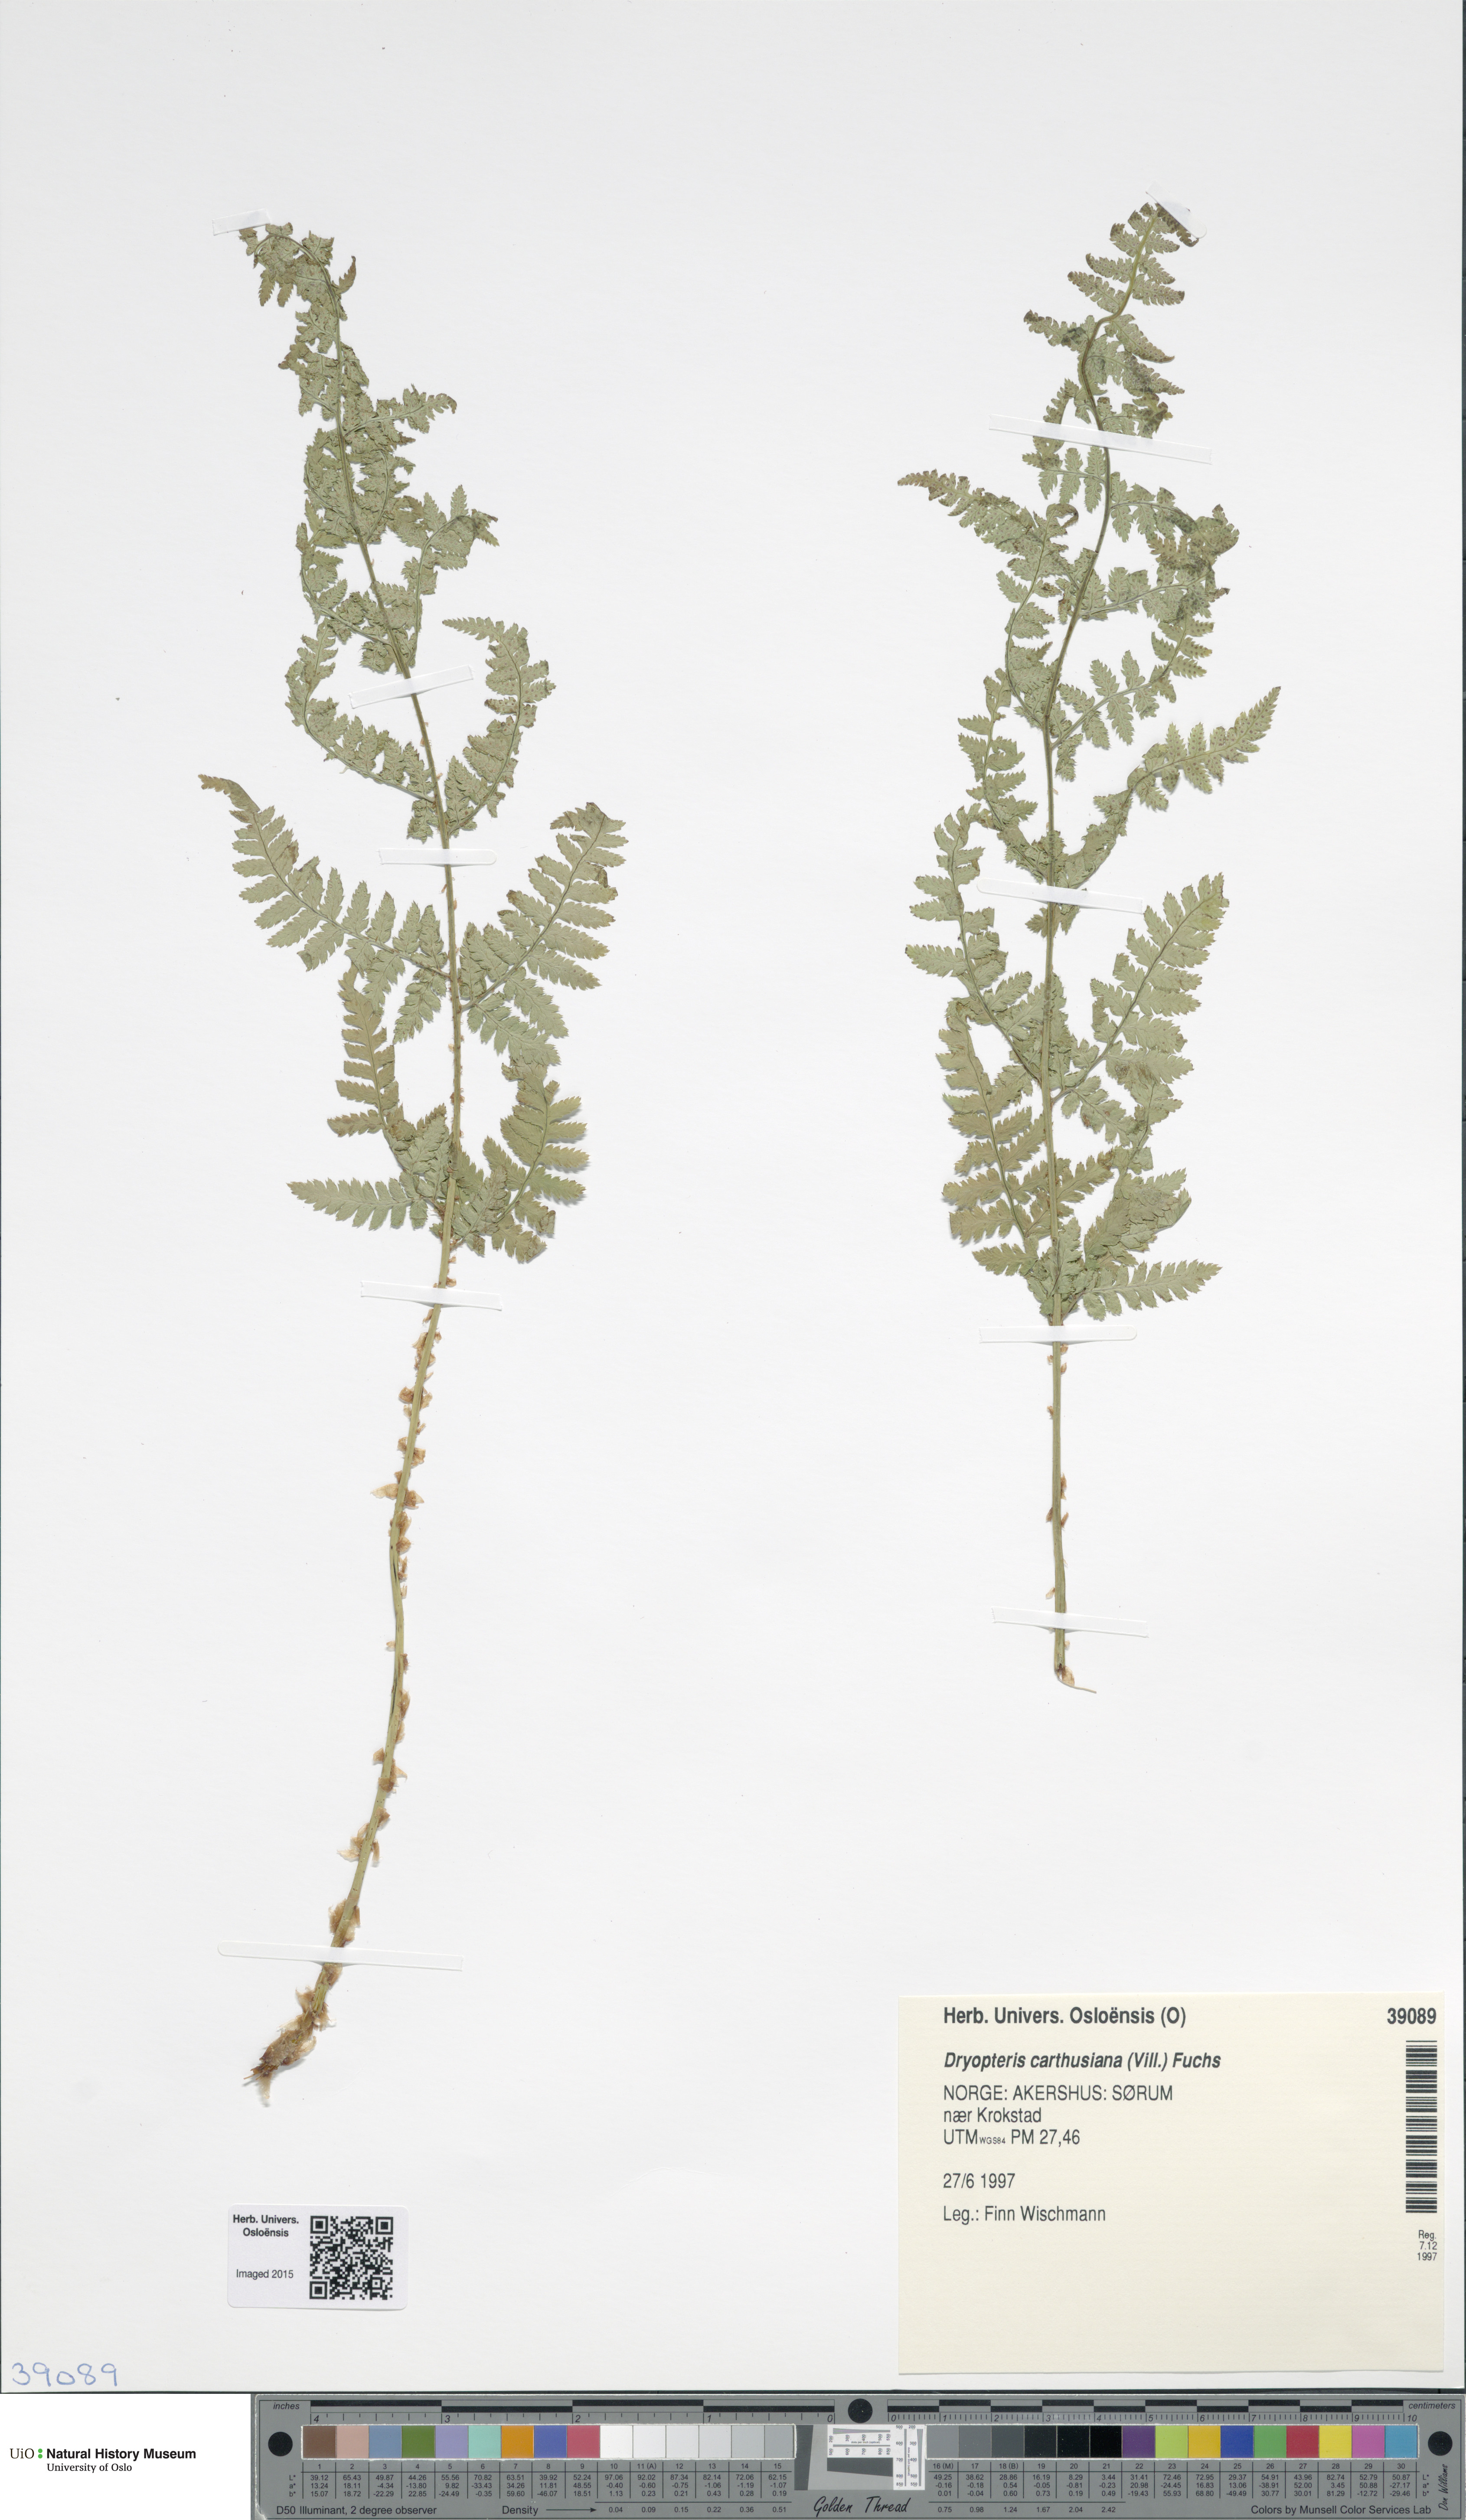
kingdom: Plantae
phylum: Tracheophyta
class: Polypodiopsida
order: Polypodiales
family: Dryopteridaceae
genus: Dryopteris
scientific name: Dryopteris carthusiana
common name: Narrow buckler-fern
